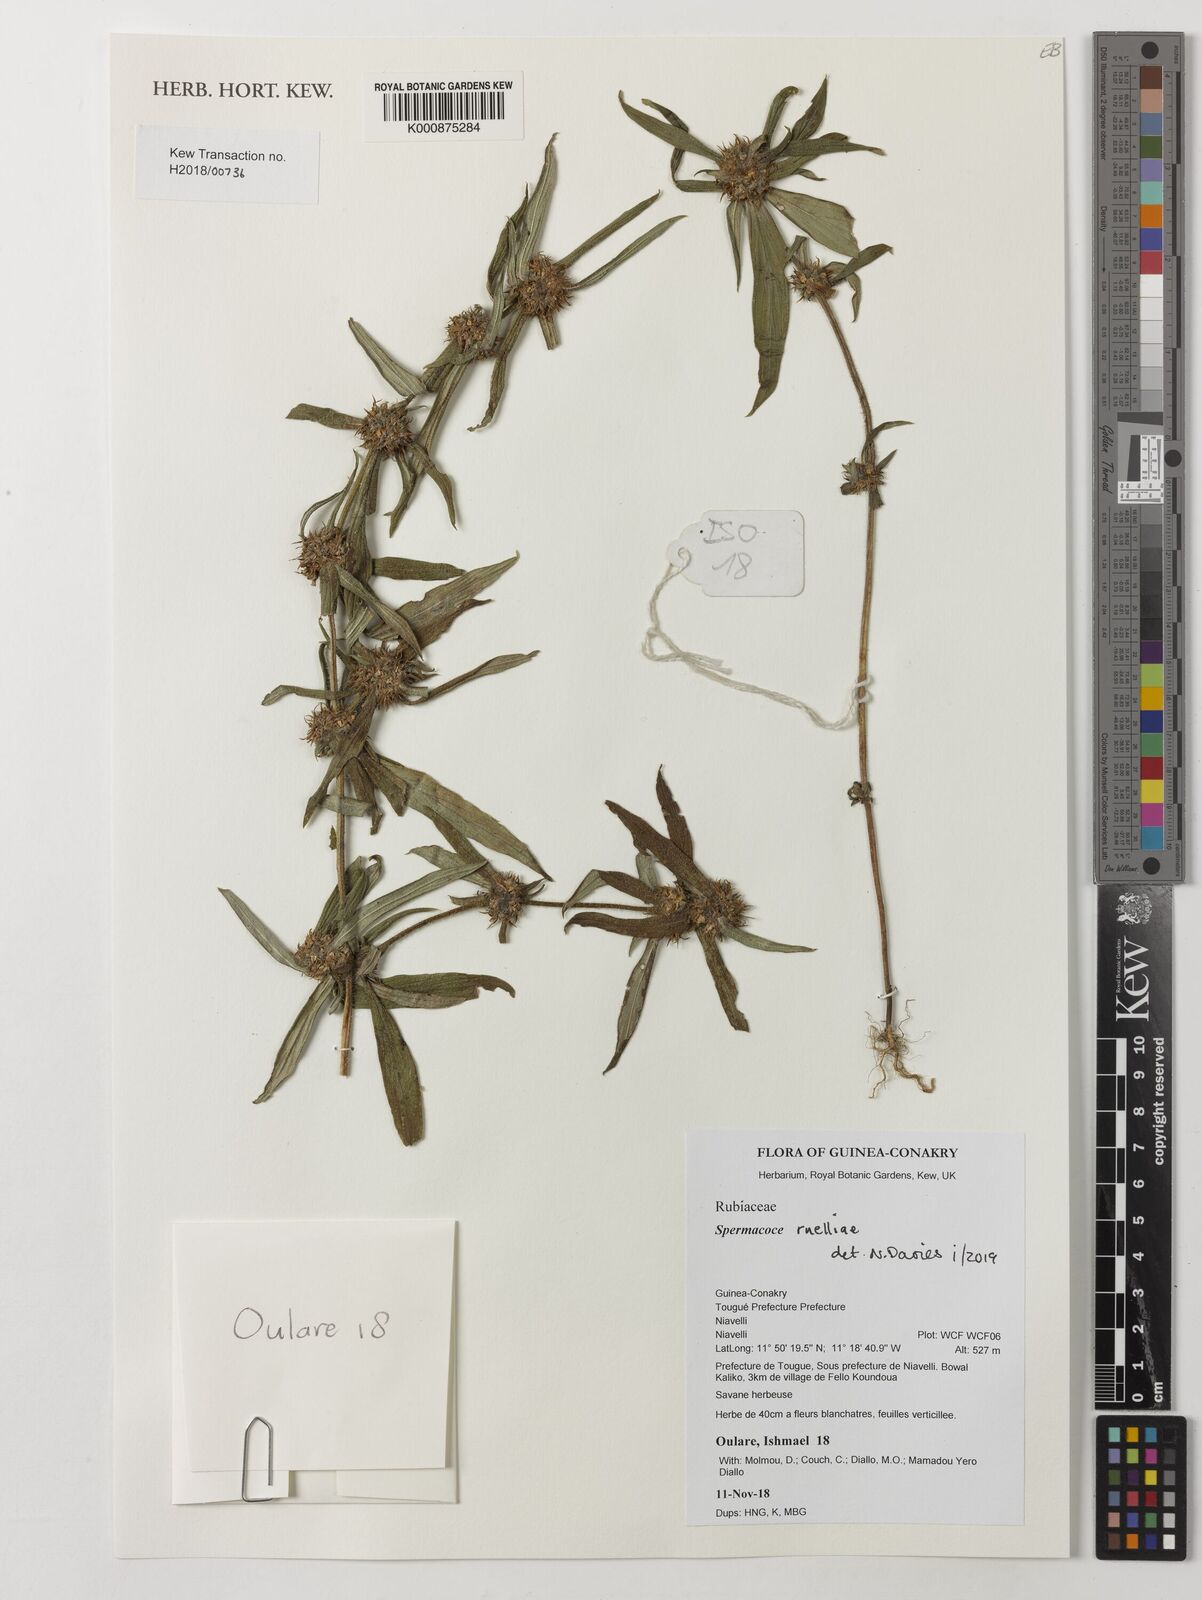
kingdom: Plantae
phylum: Tracheophyta
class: Magnoliopsida
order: Gentianales
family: Rubiaceae
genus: Spermacoce
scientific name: Spermacoce ruelliae
